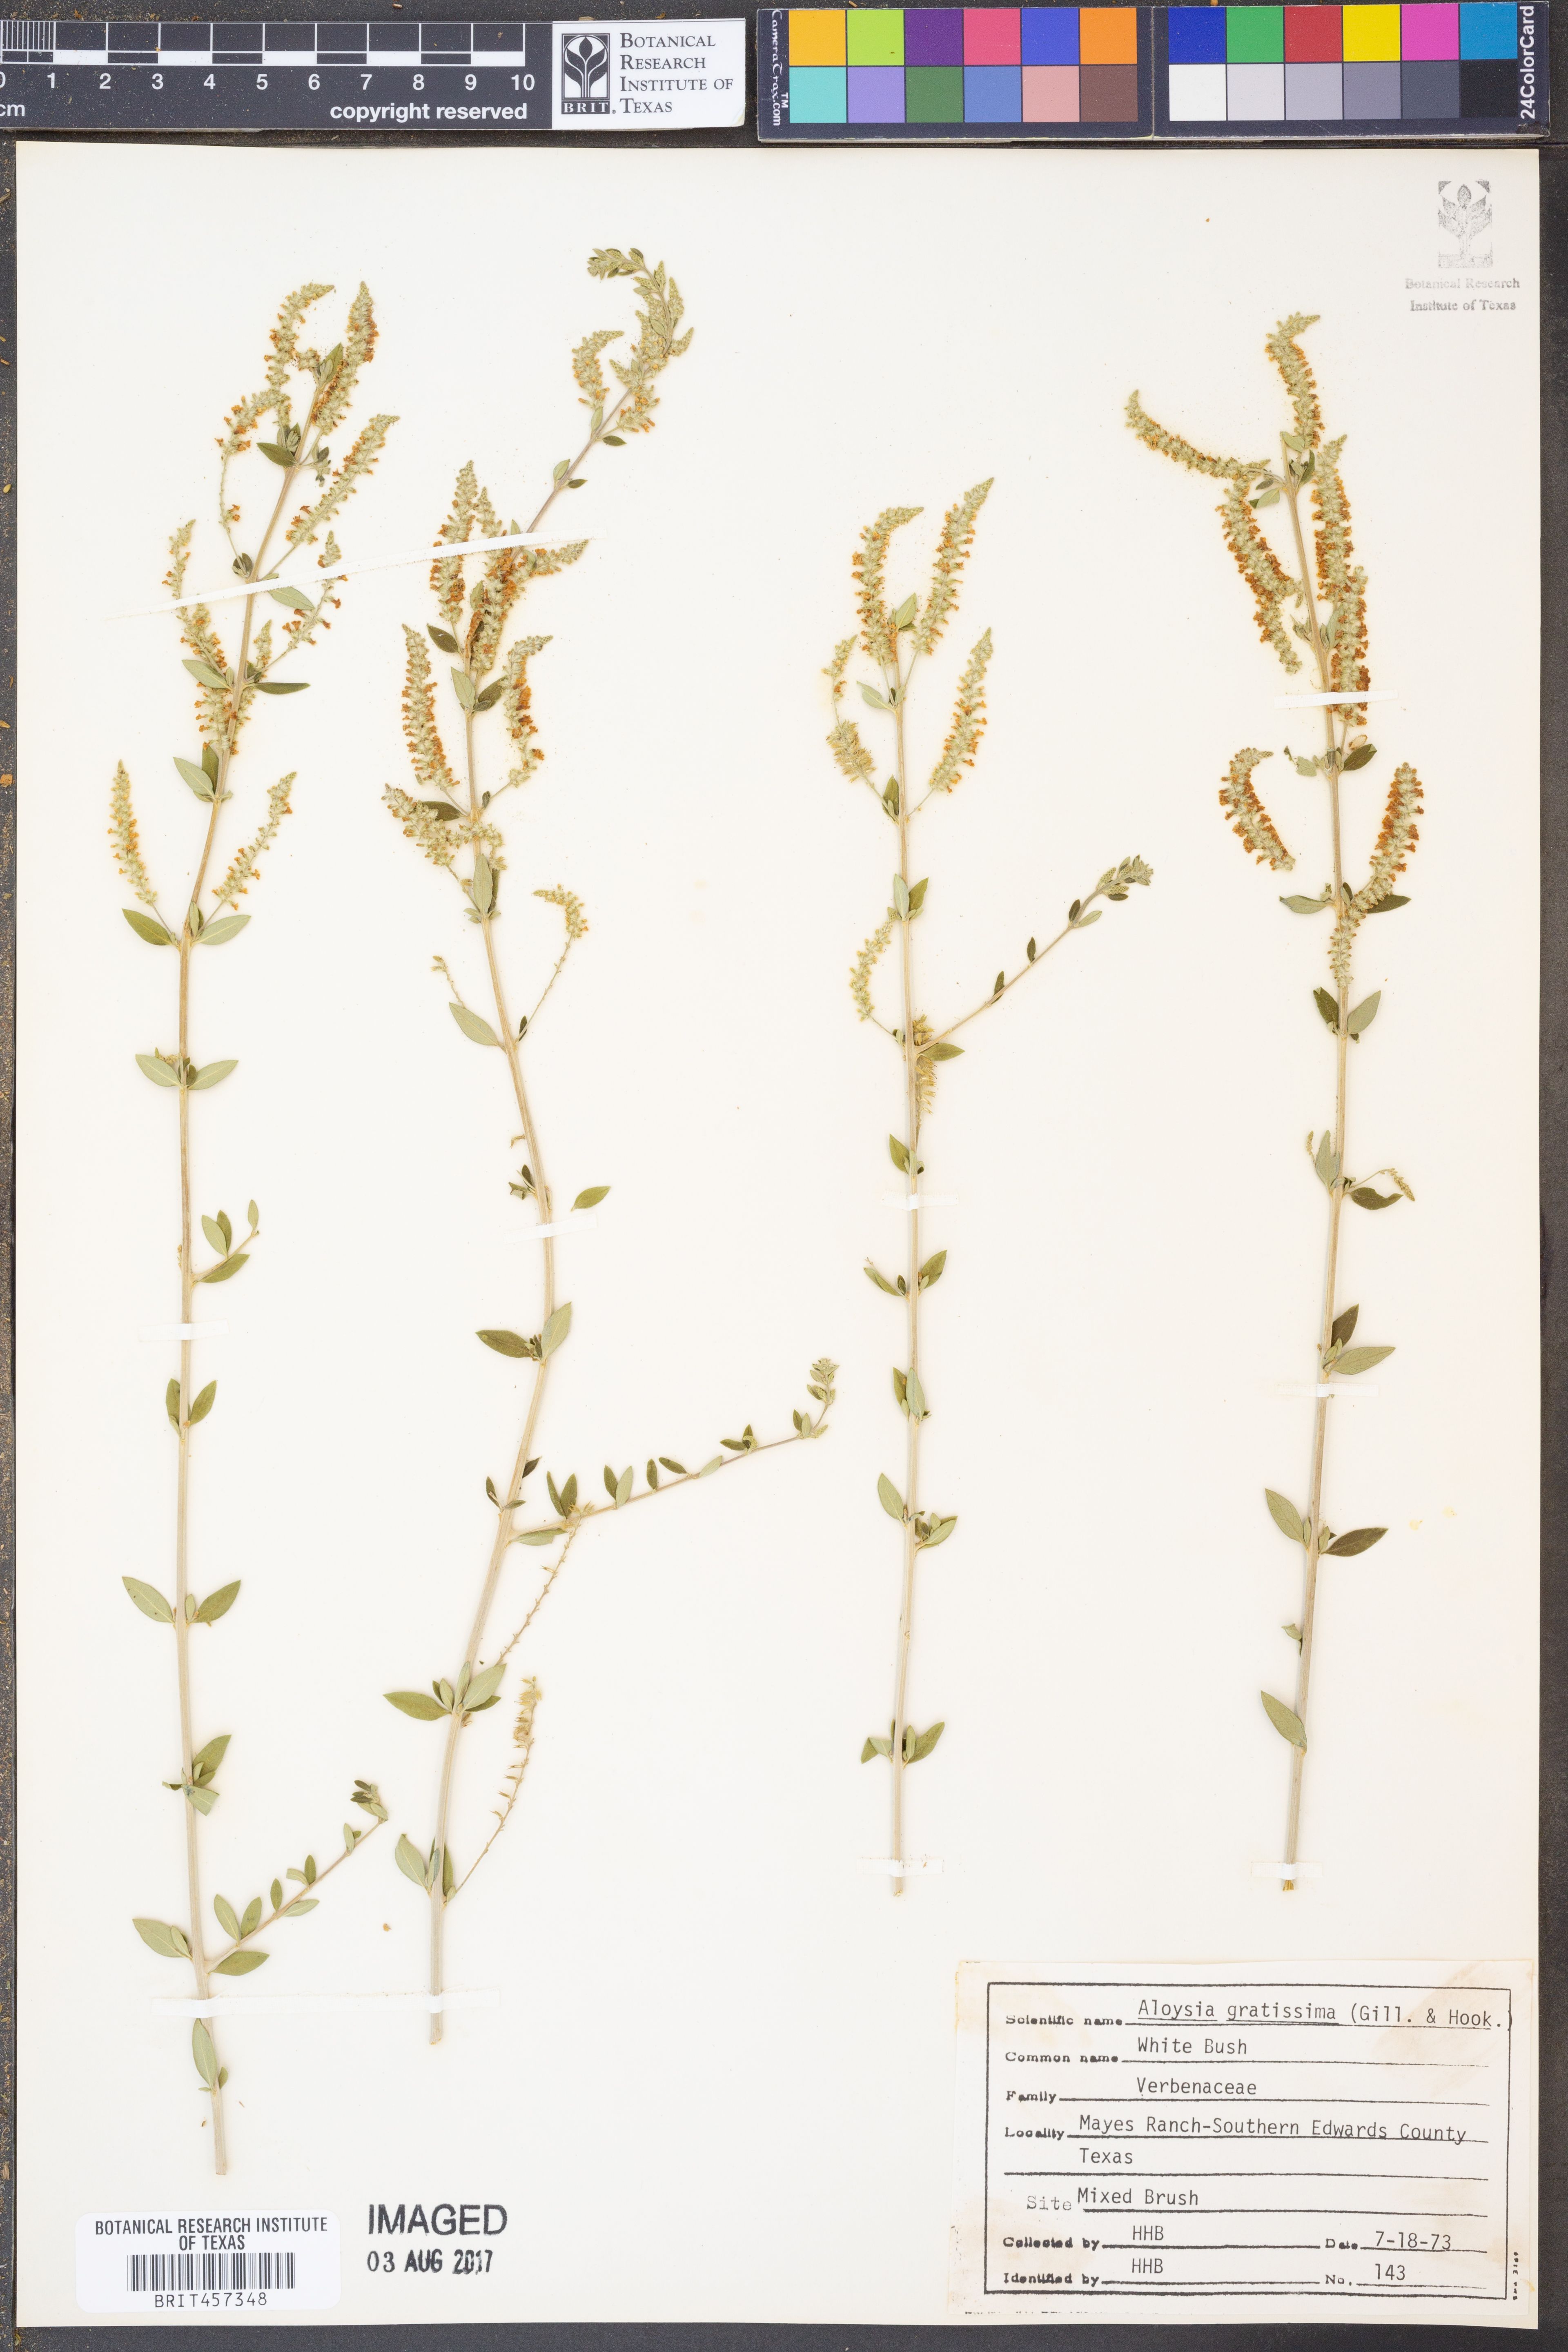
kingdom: Plantae
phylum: Tracheophyta
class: Magnoliopsida
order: Lamiales
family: Verbenaceae
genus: Aloysia
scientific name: Aloysia gratissima
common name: Common bee-brush
